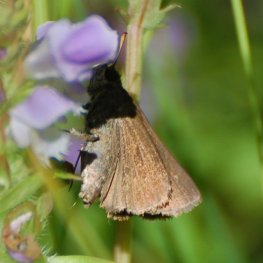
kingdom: Animalia
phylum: Arthropoda
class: Insecta
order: Lepidoptera
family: Hesperiidae
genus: Euphyes
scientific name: Euphyes vestris
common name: Dun Skipper
